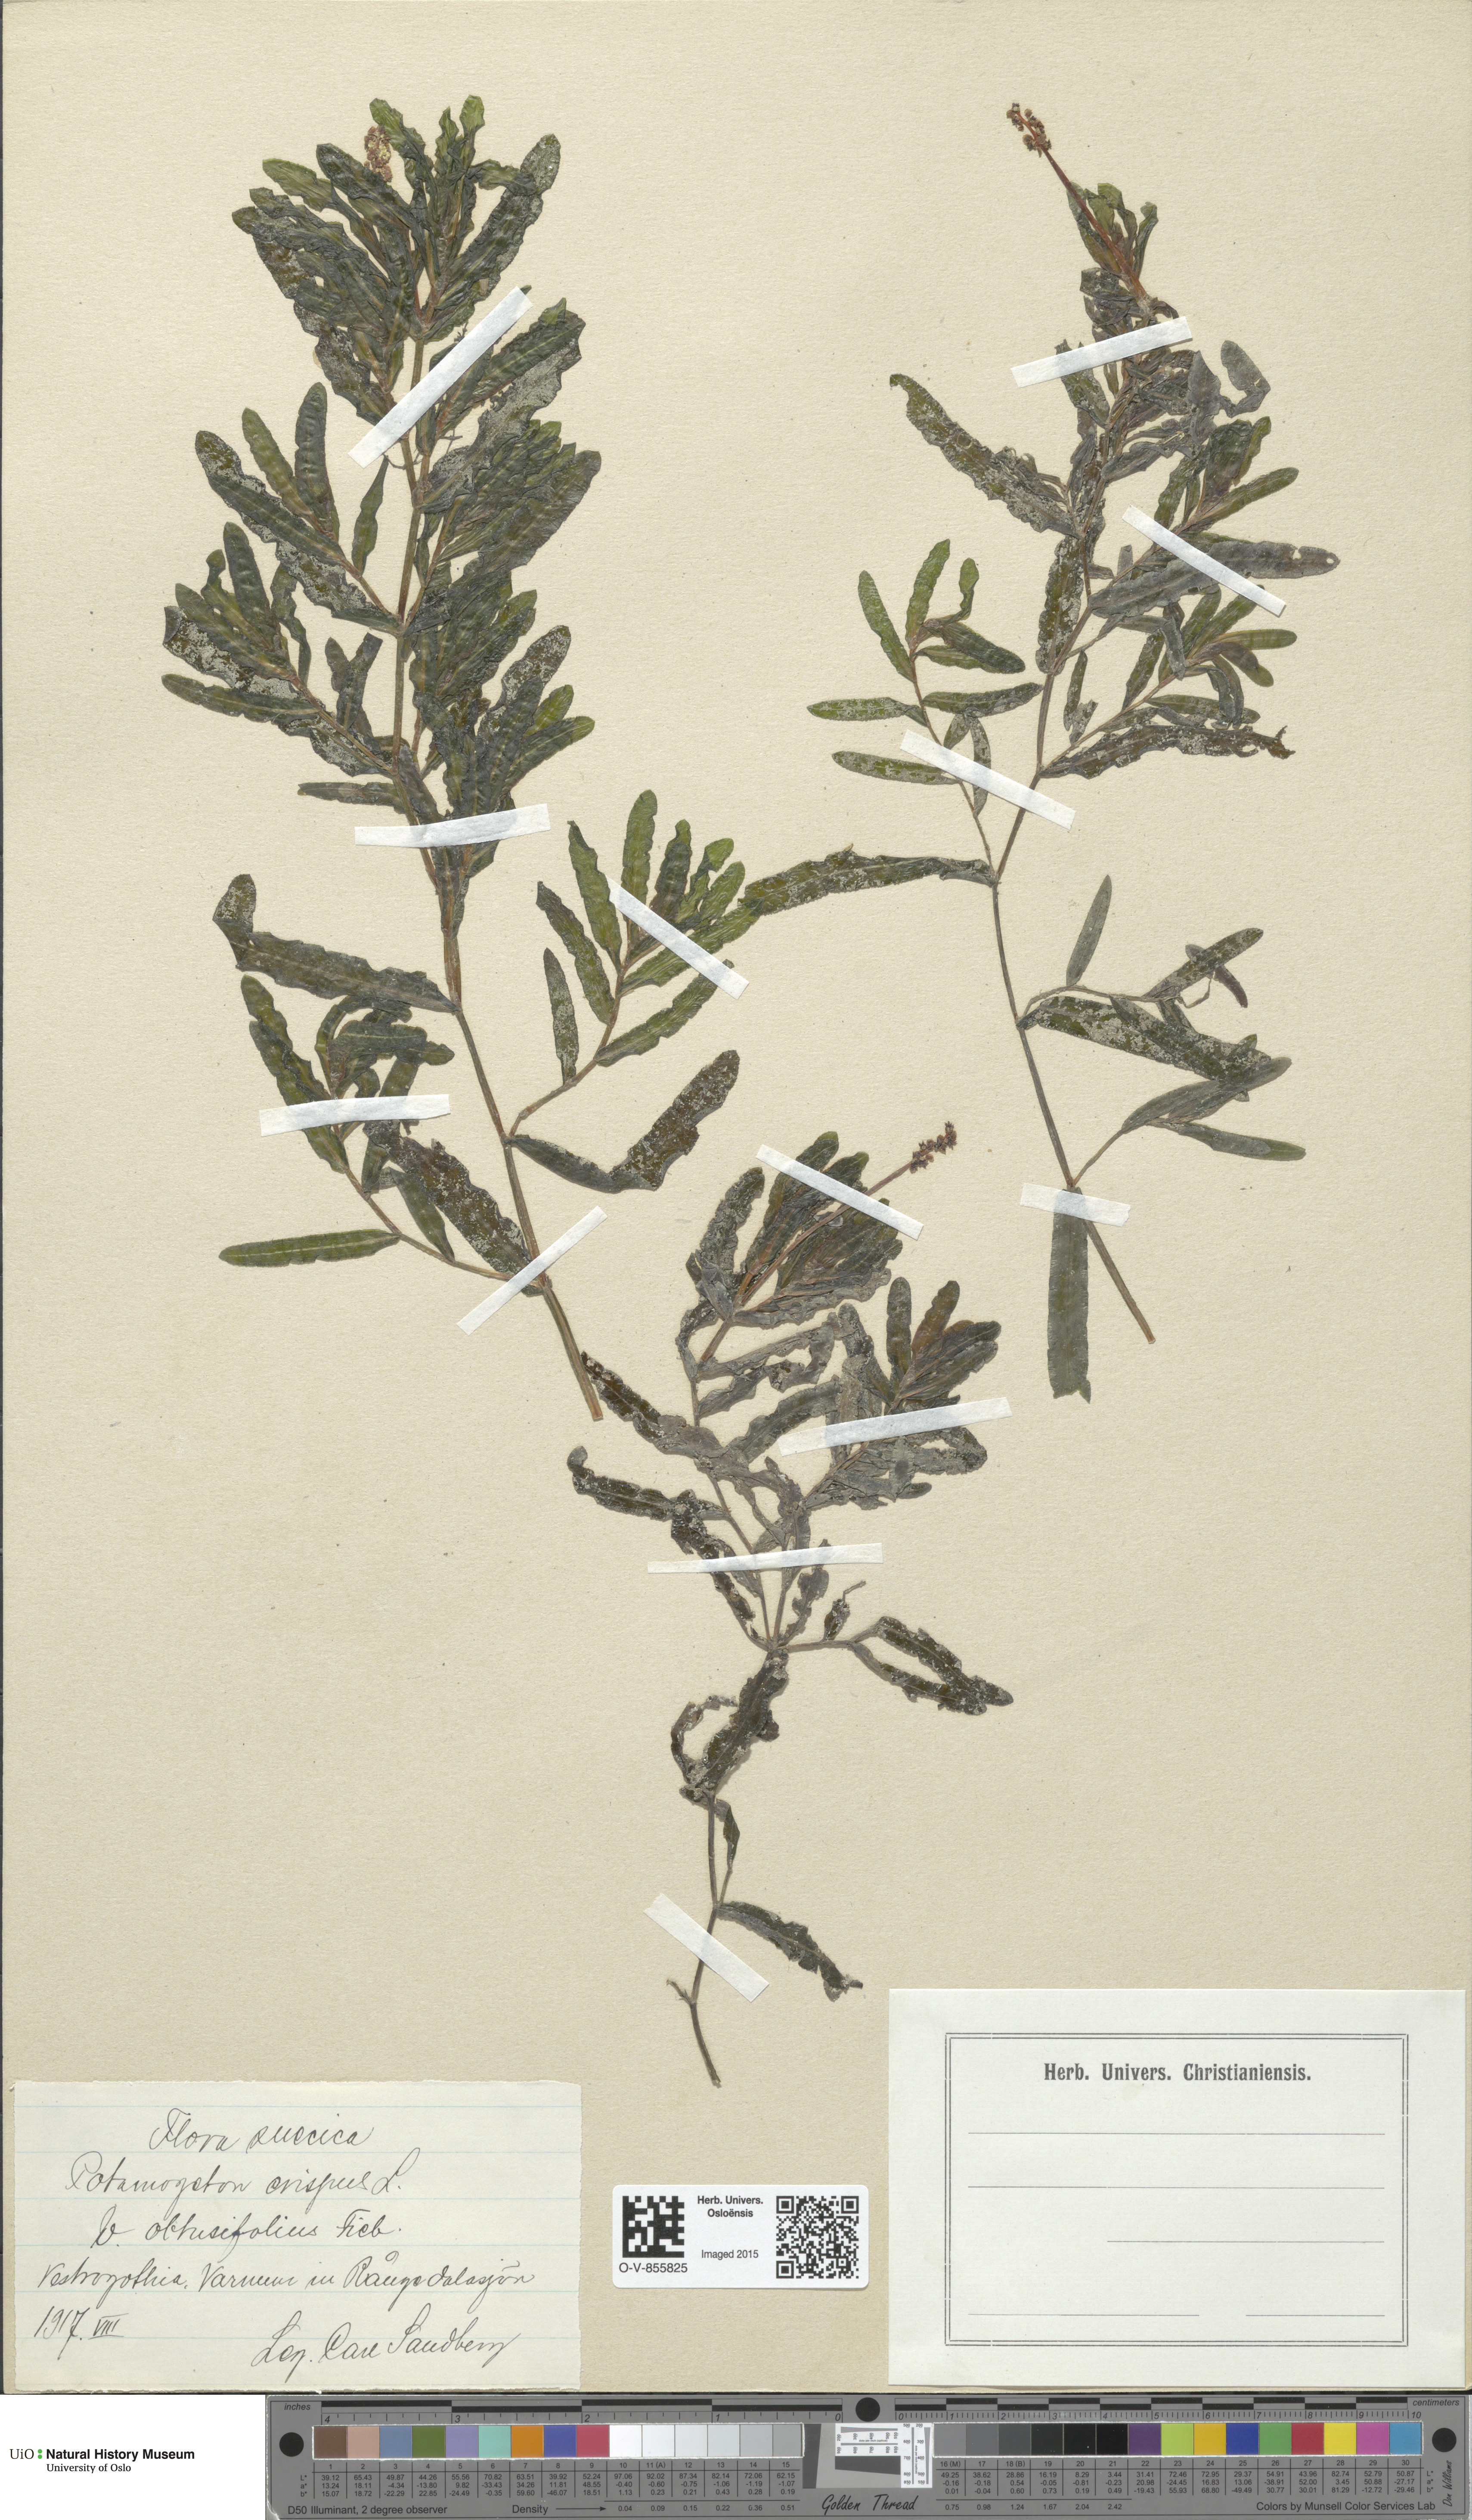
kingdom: Plantae
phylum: Tracheophyta
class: Liliopsida
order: Alismatales
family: Potamogetonaceae
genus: Potamogeton
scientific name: Potamogeton crispus
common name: Curled pondweed
